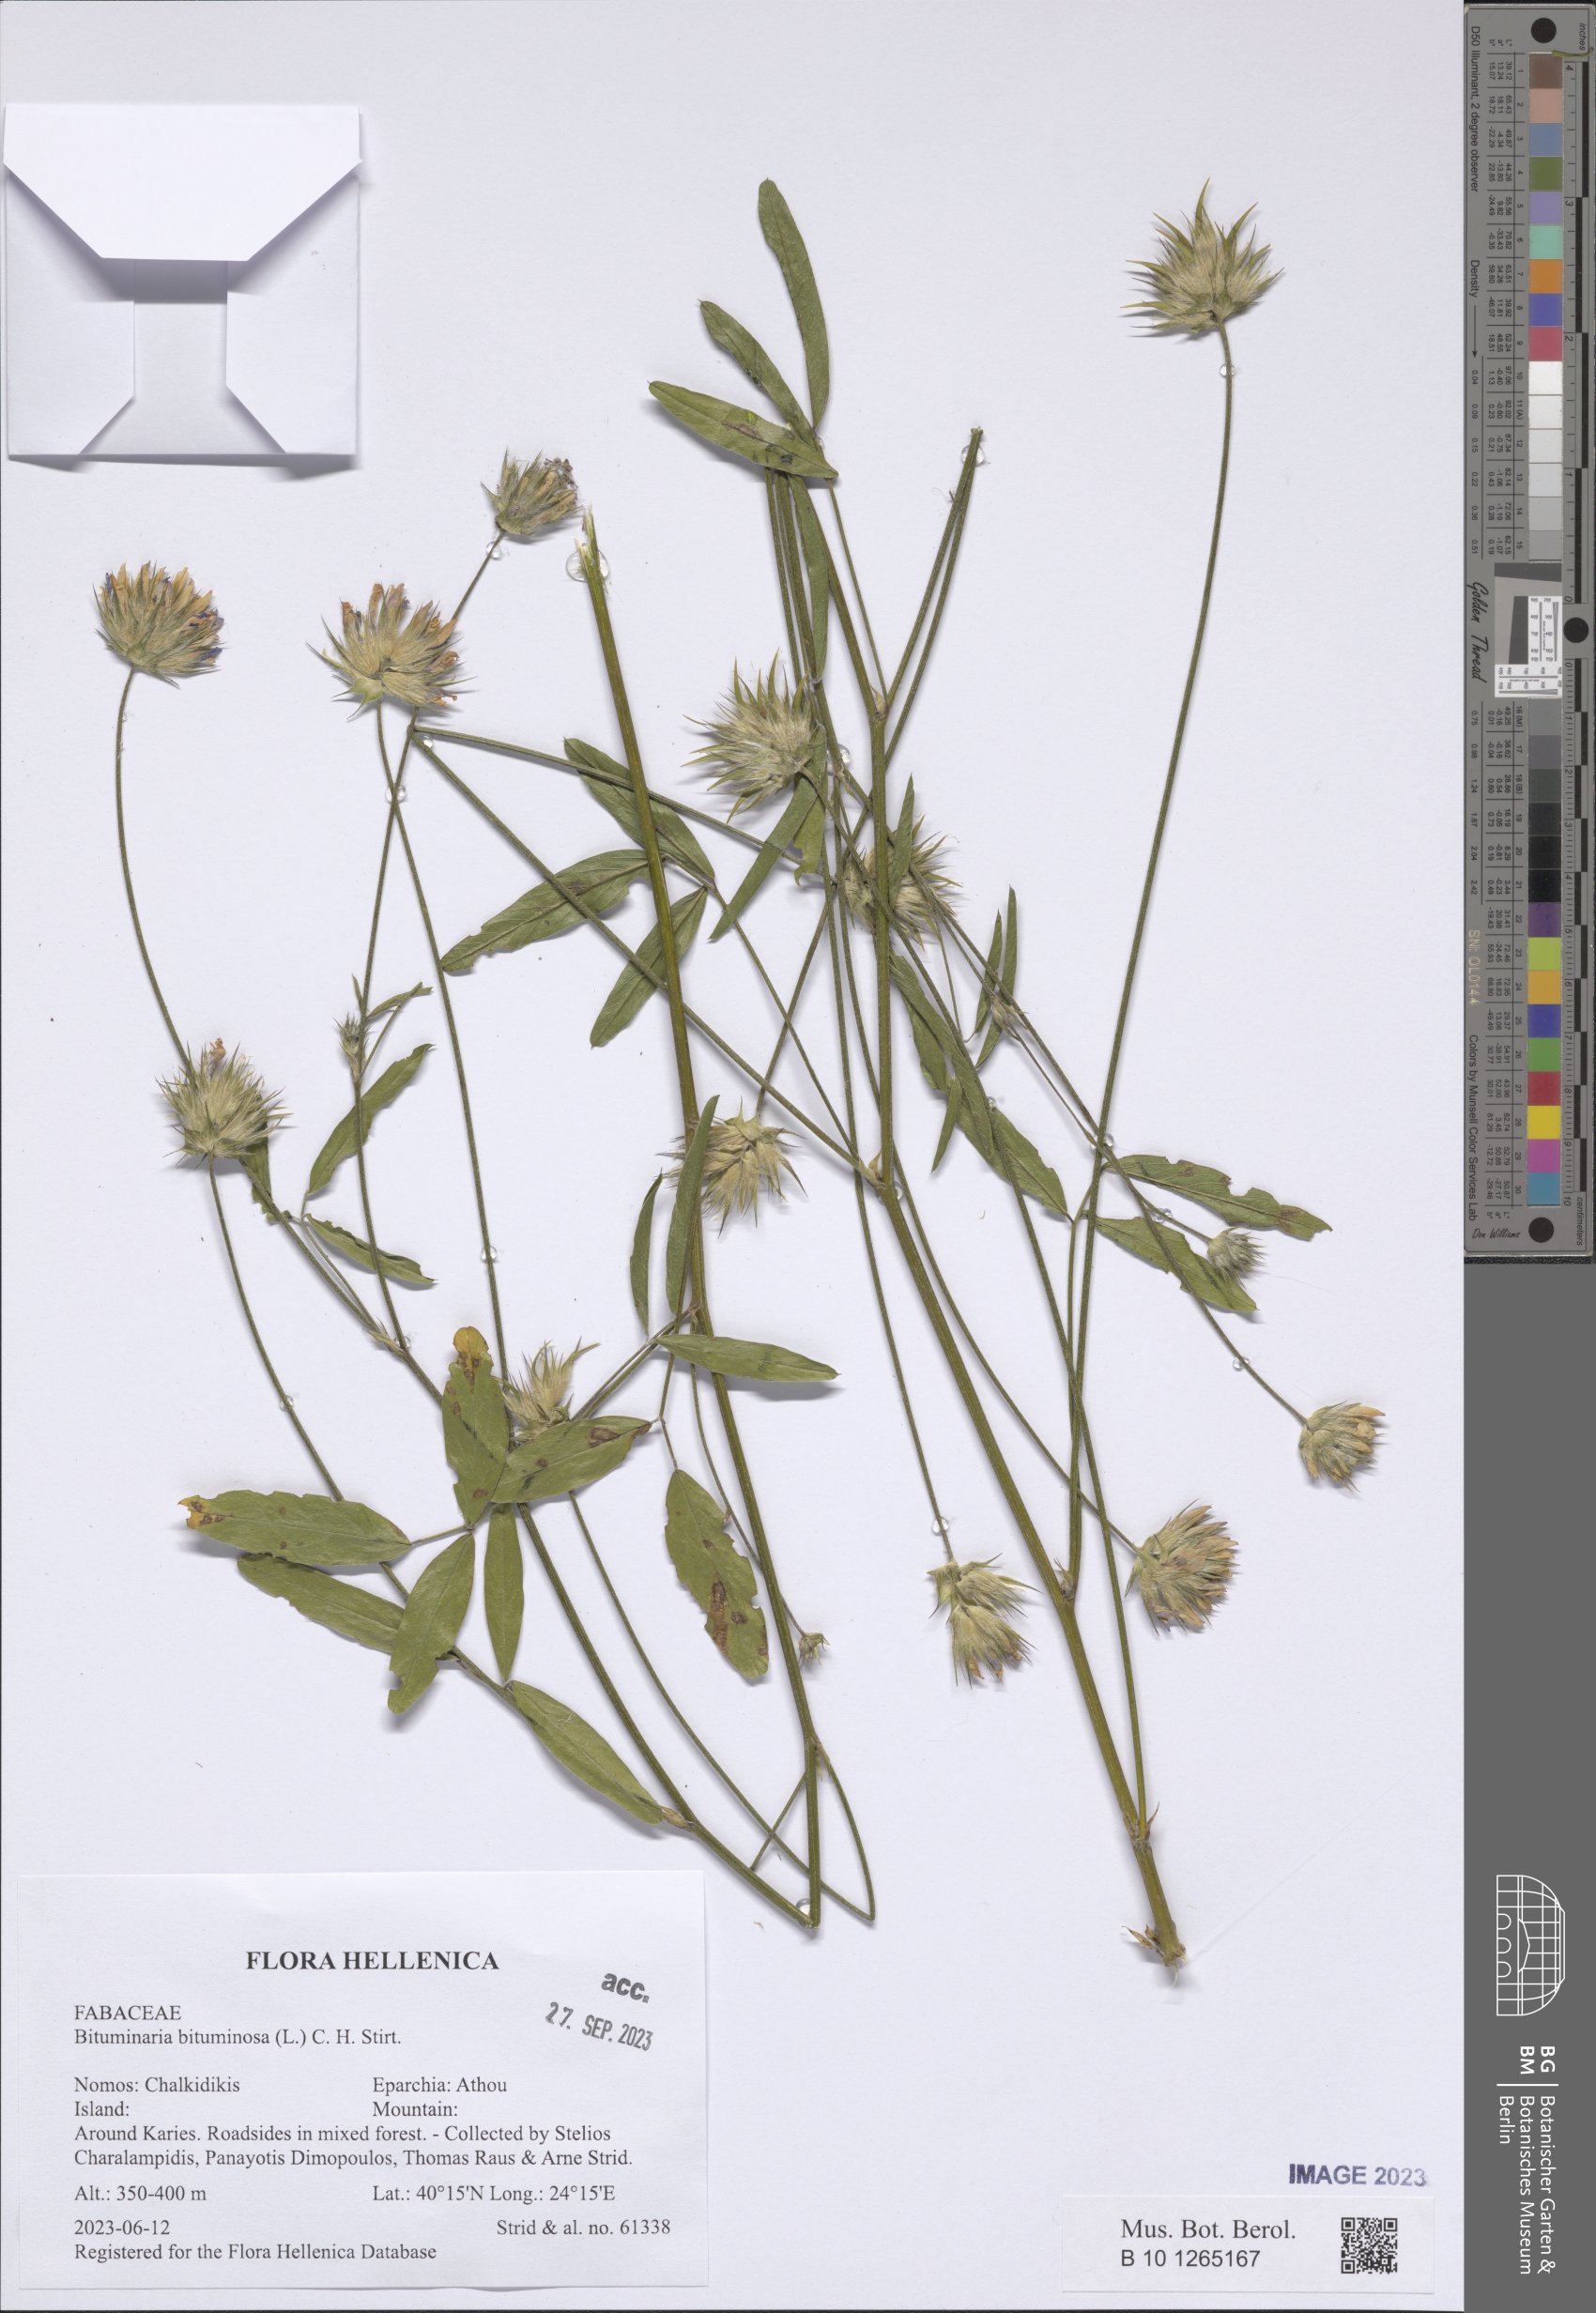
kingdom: Plantae
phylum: Tracheophyta
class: Magnoliopsida
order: Fabales
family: Fabaceae
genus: Bituminaria
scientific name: Bituminaria bituminosa
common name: Arabian pea
